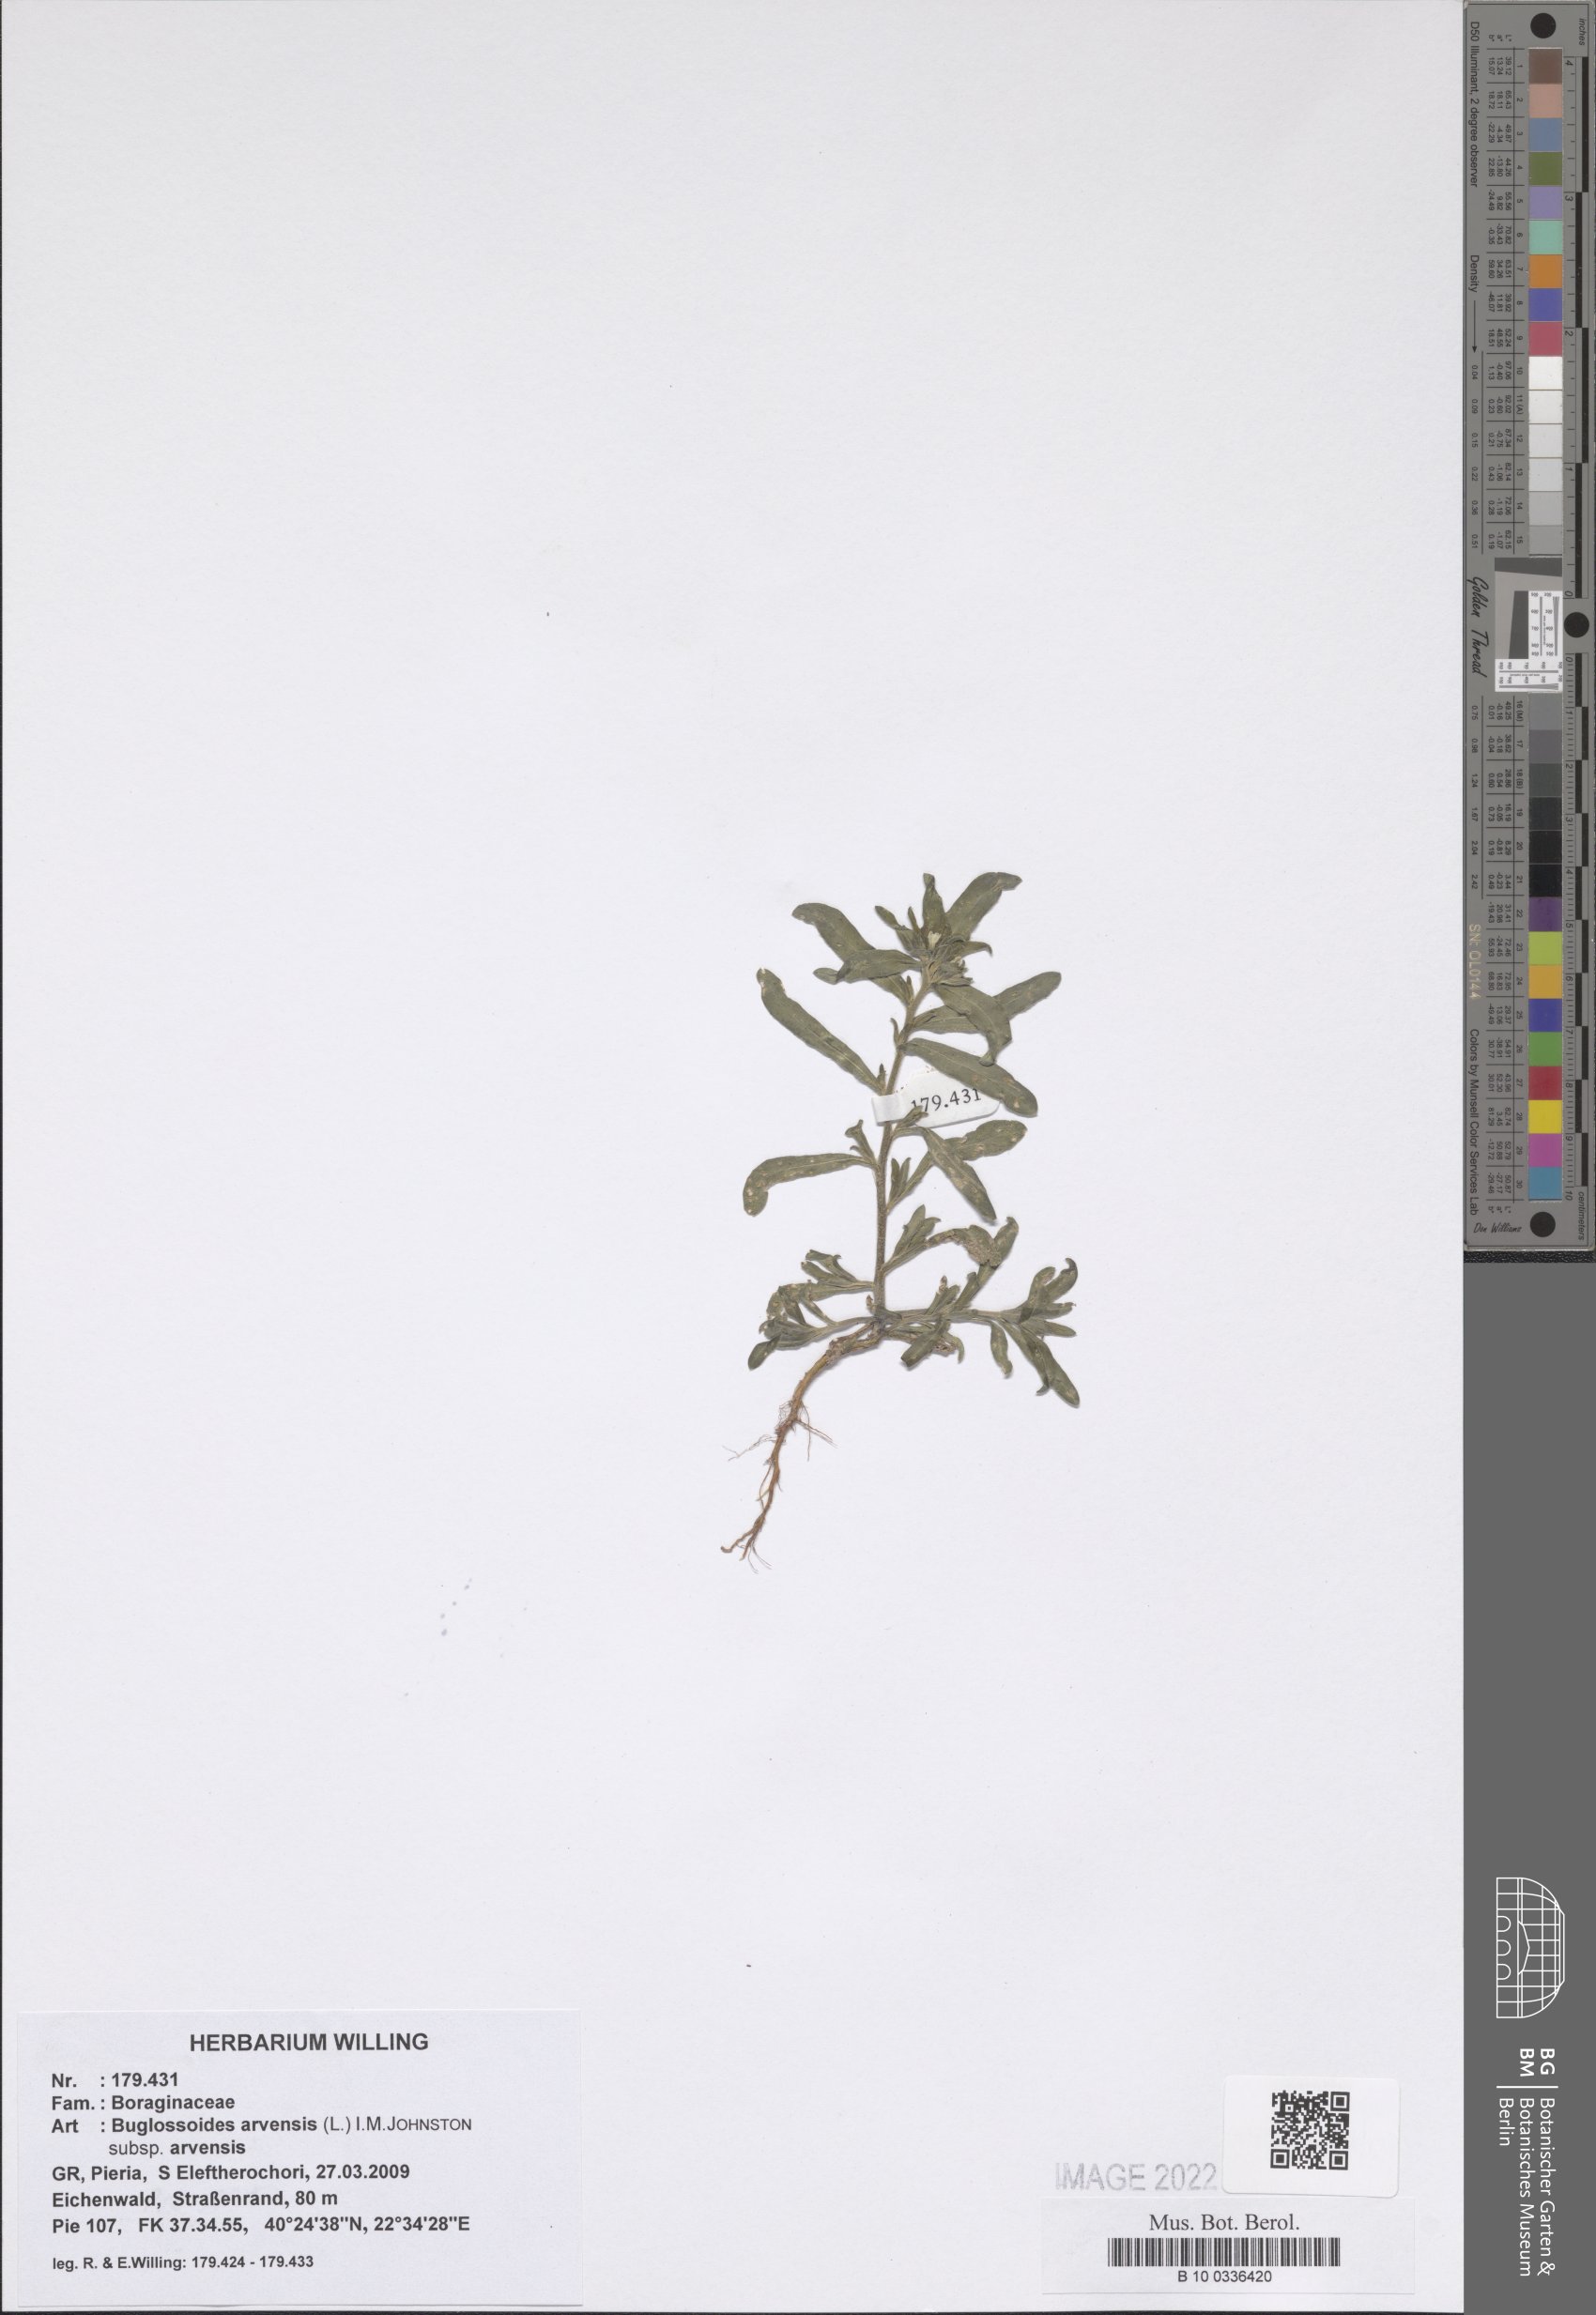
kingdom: Plantae
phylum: Tracheophyta
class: Magnoliopsida
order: Boraginales
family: Boraginaceae
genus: Buglossoides
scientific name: Buglossoides arvensis
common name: Corn gromwell
